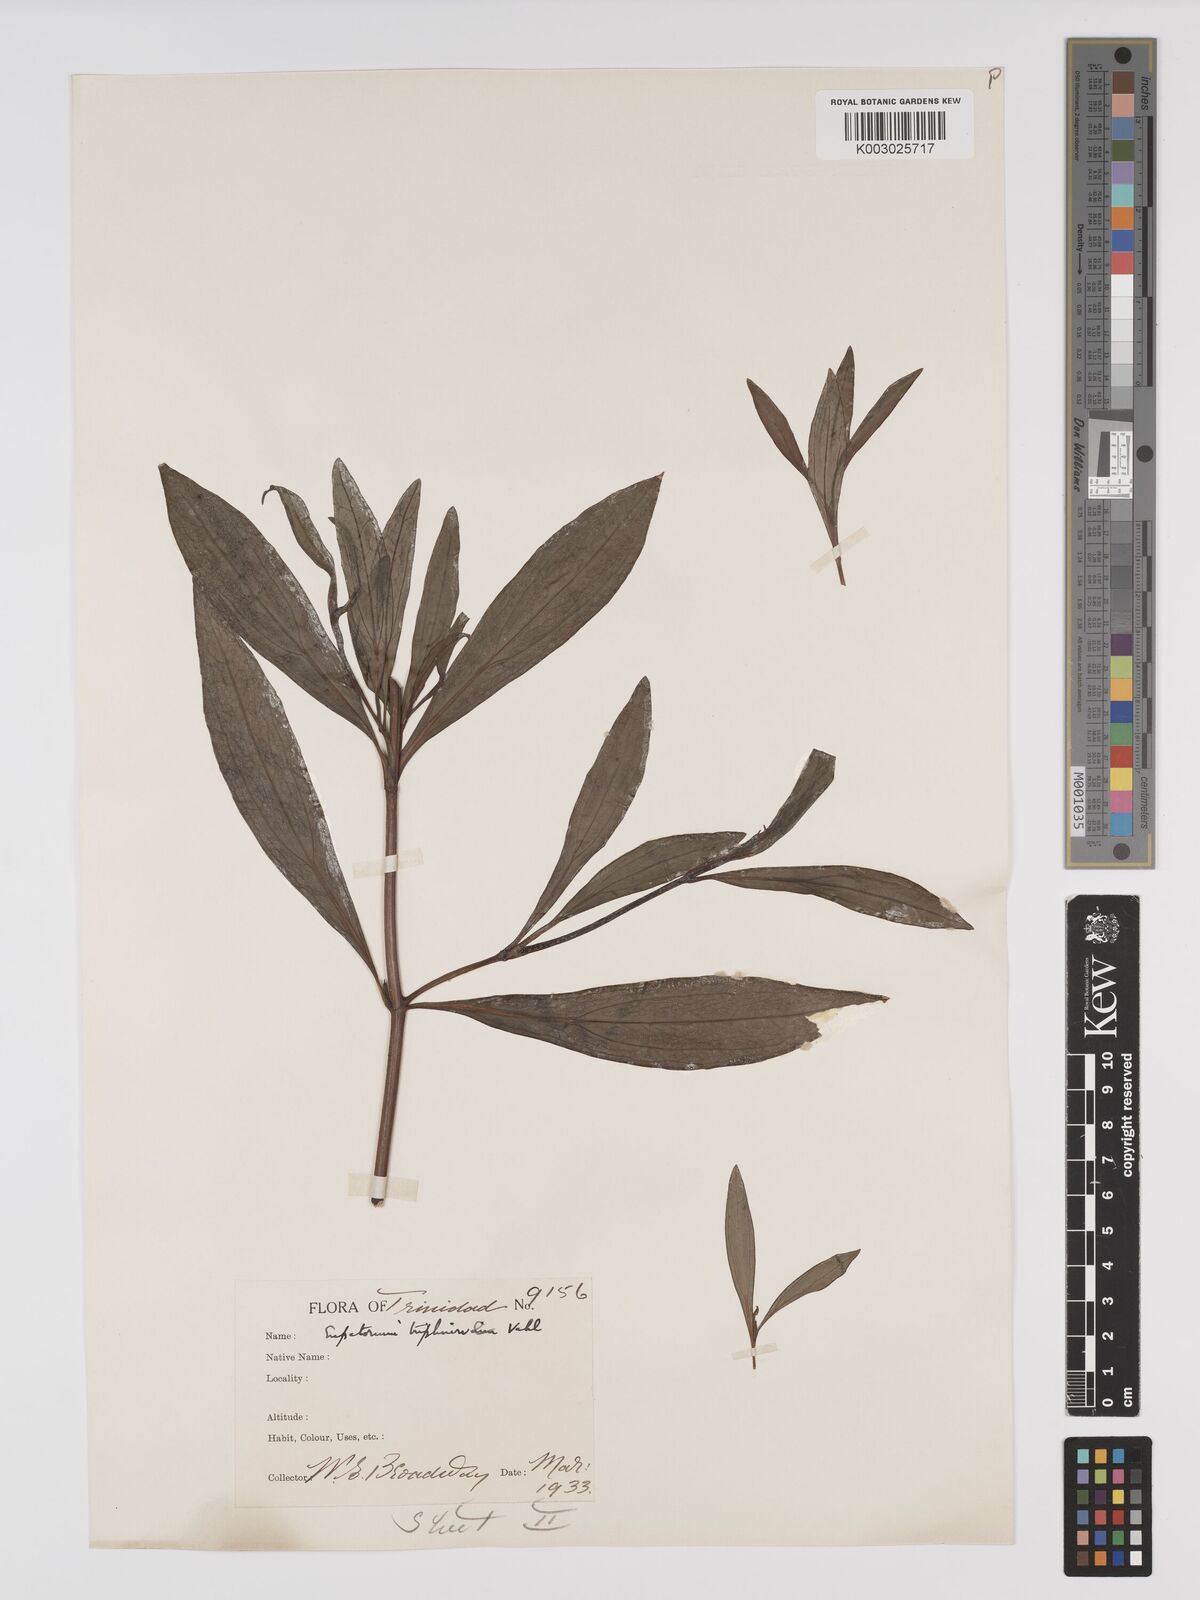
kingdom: Plantae
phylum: Tracheophyta
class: Magnoliopsida
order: Asterales
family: Asteraceae
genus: Ayapana
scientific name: Ayapana triplinervis
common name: Triplinerved eupatorium
